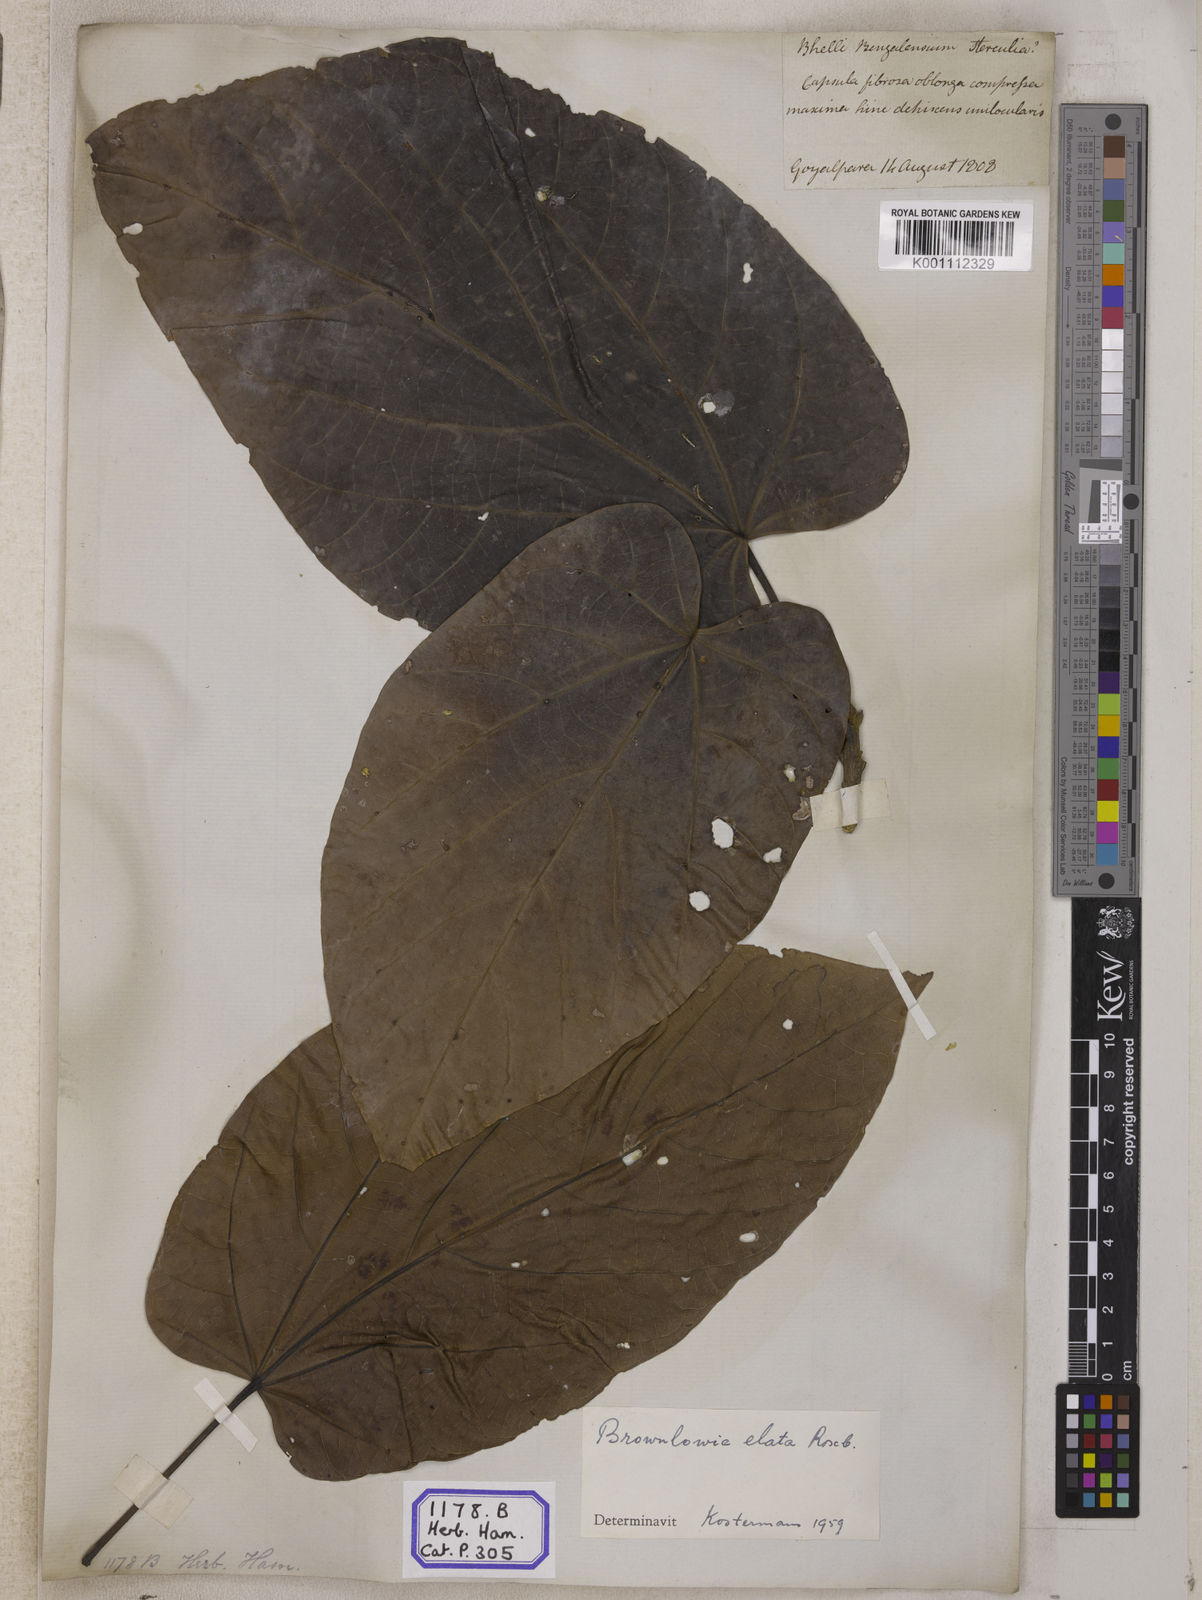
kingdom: Plantae
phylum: Tracheophyta
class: Magnoliopsida
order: Malvales
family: Malvaceae
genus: Brownlowia
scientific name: Brownlowia elata
